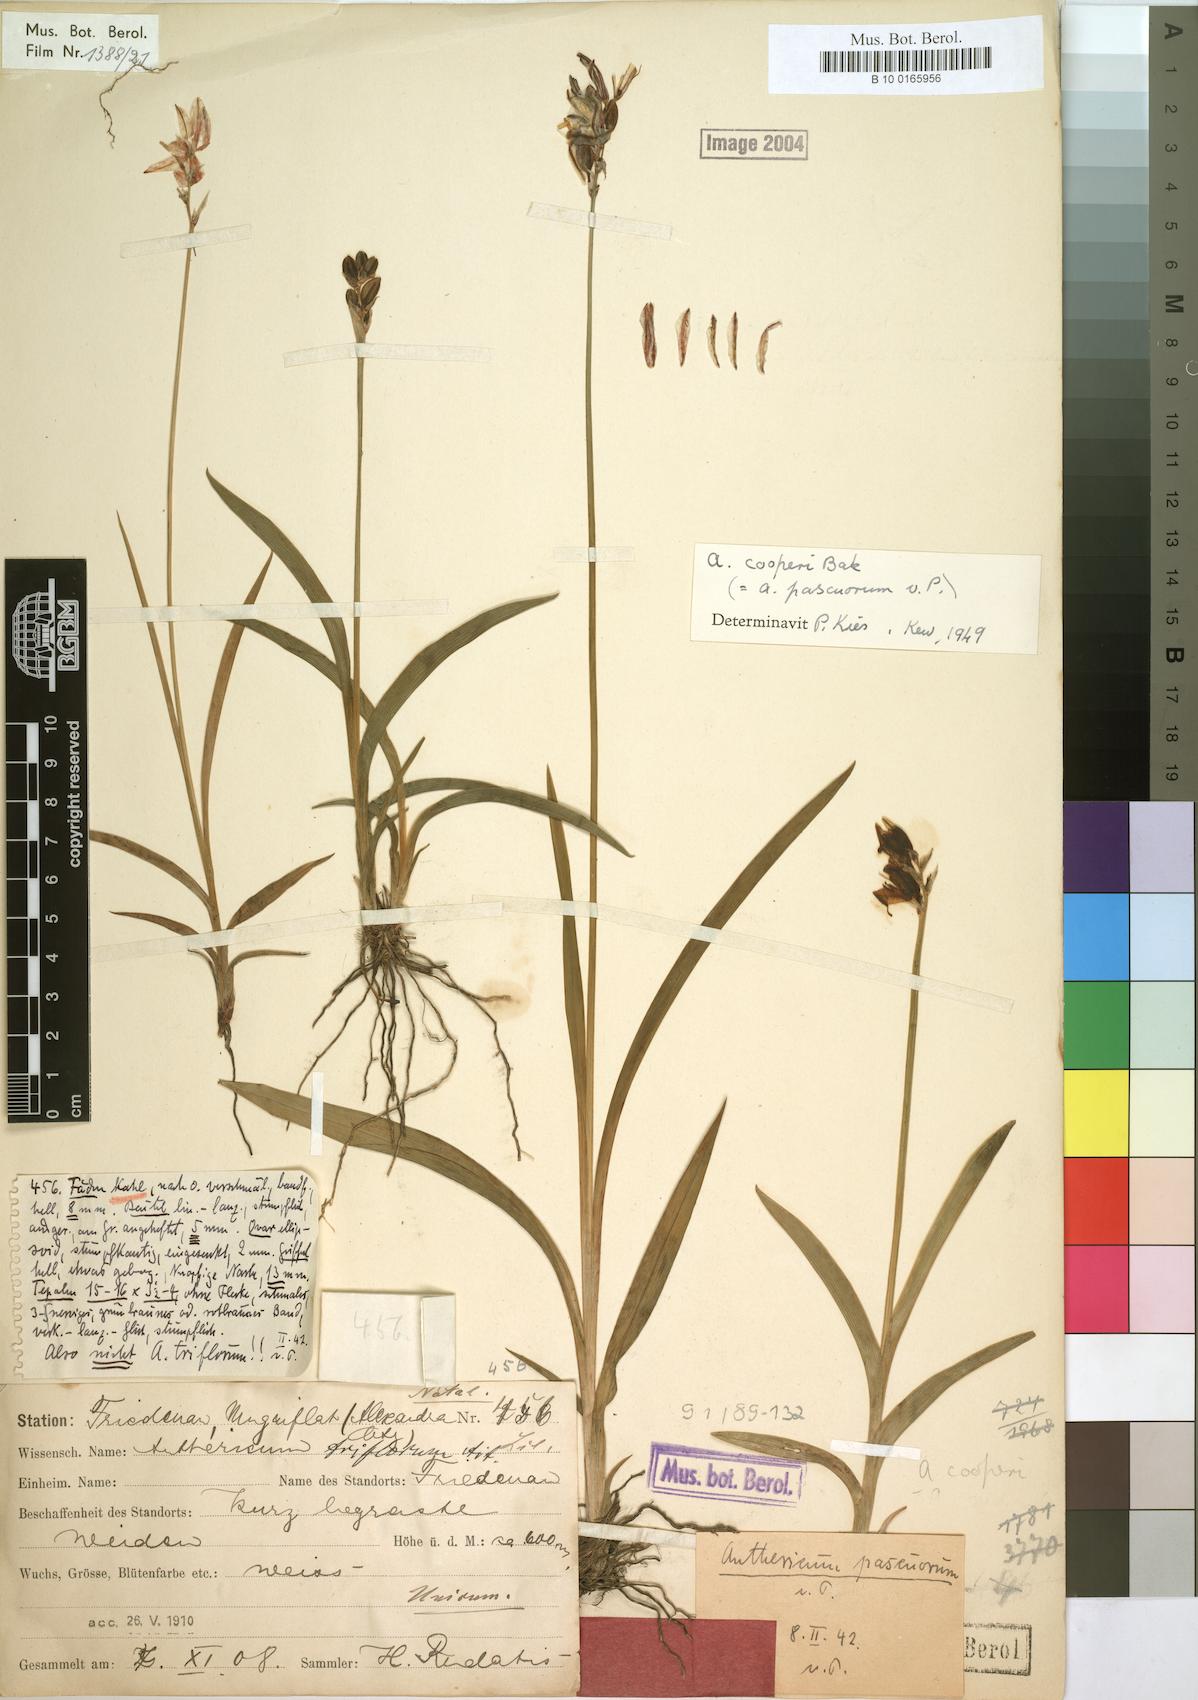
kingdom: Plantae
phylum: Tracheophyta
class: Liliopsida
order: Asparagales
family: Asparagaceae
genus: Chlorophytum
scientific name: Chlorophytum cooperi
